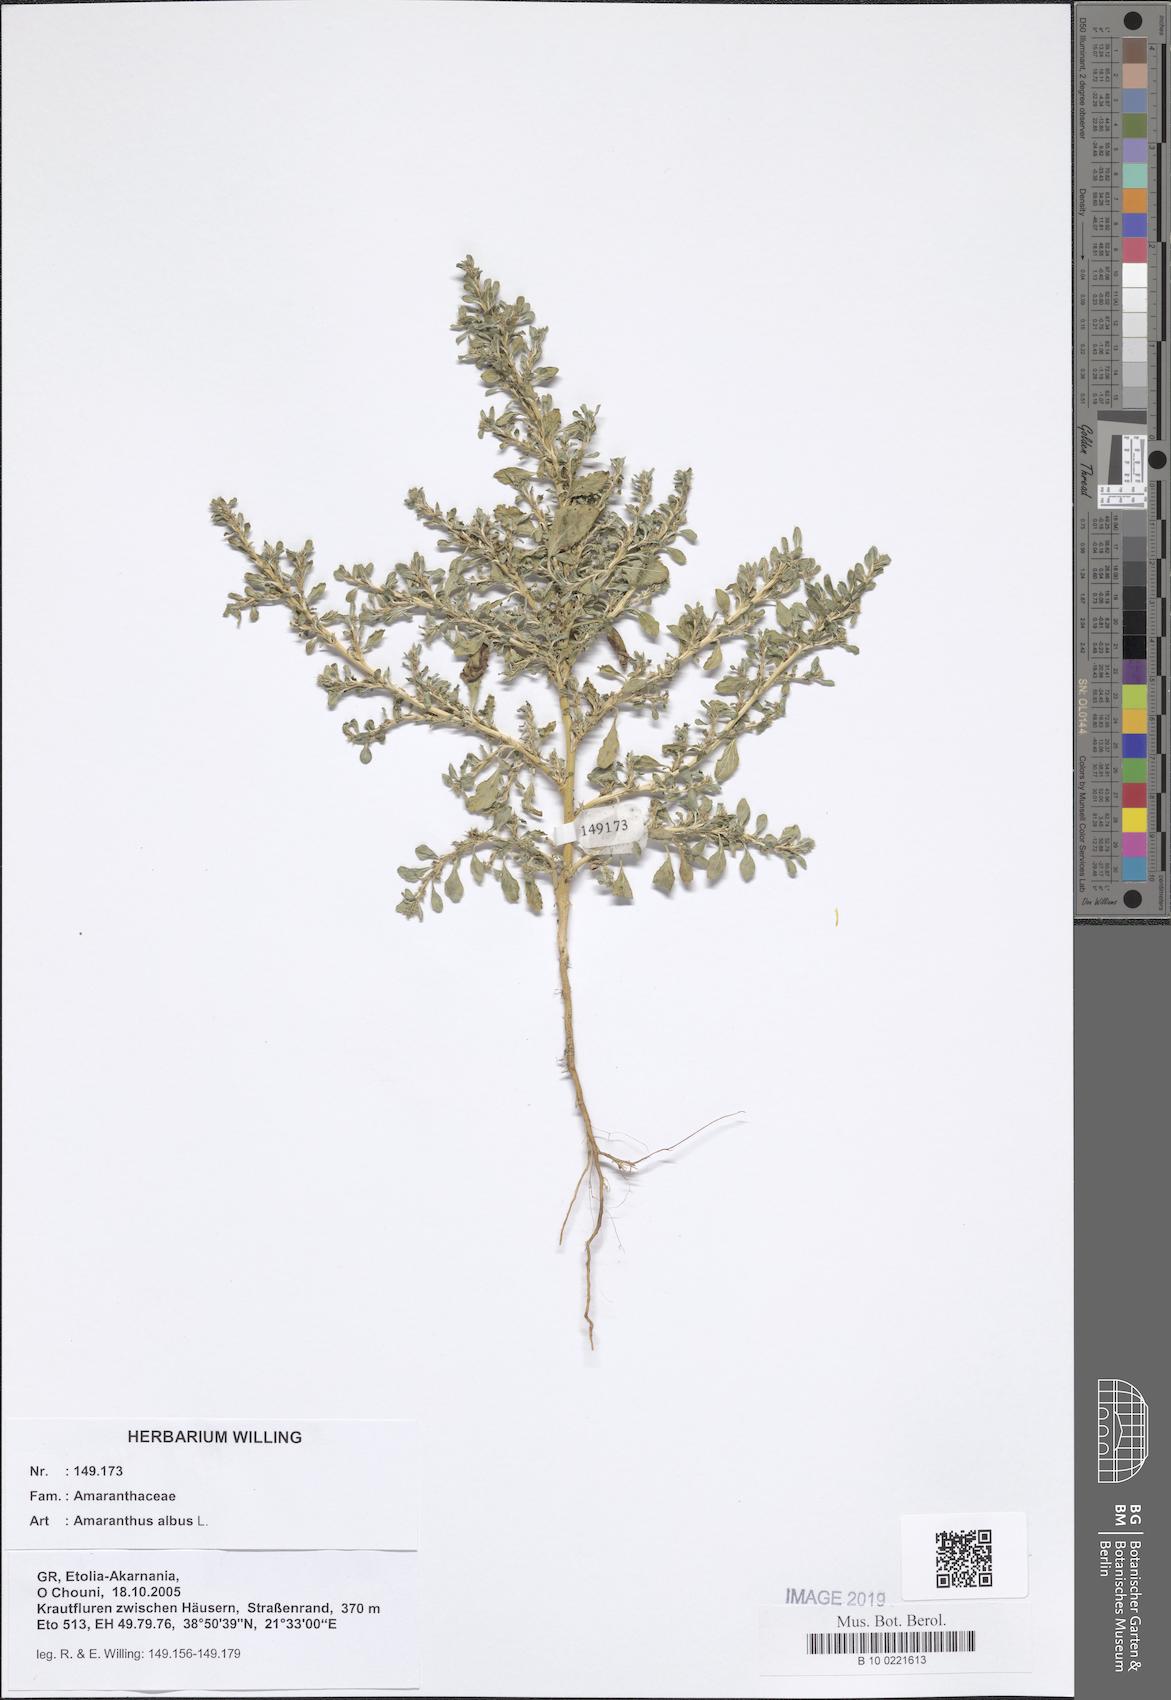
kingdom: Plantae
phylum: Tracheophyta
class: Magnoliopsida
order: Caryophyllales
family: Amaranthaceae
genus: Amaranthus
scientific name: Amaranthus albus
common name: White pigweed
